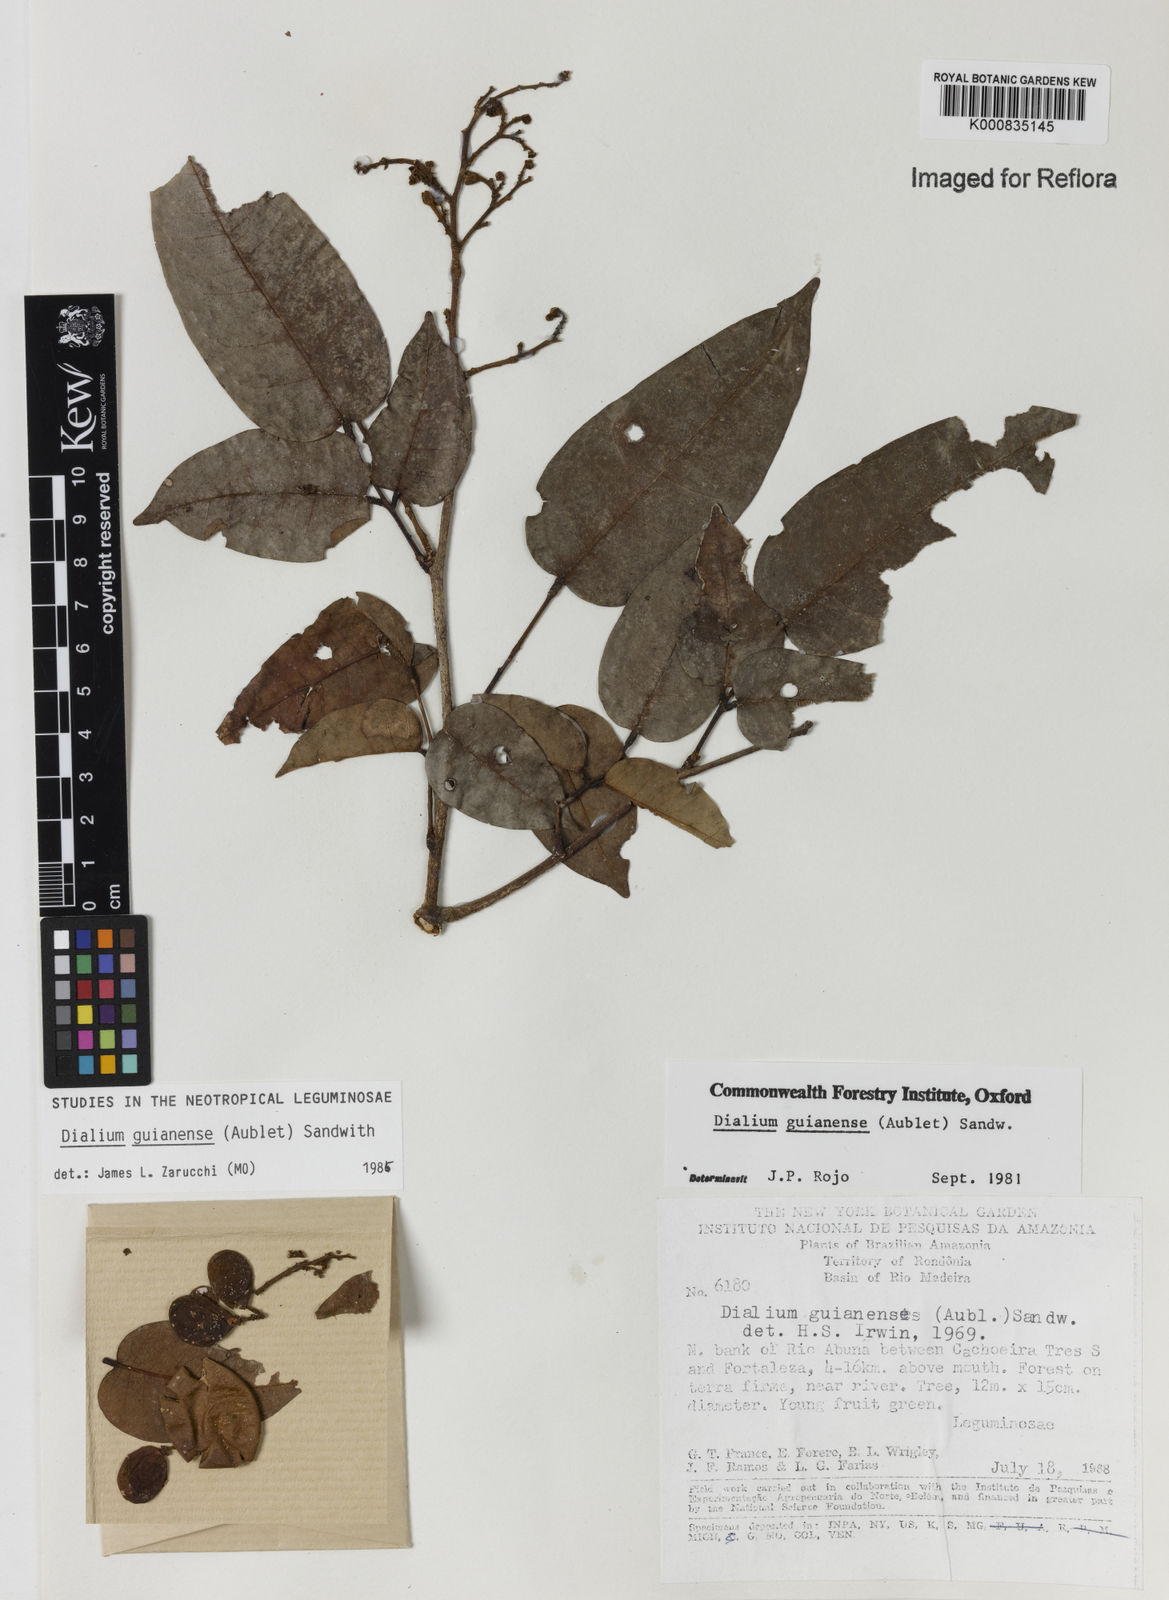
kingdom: Plantae
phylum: Tracheophyta
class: Magnoliopsida
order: Fabales
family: Fabaceae
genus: Dialium
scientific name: Dialium guianense
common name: Ironwood
